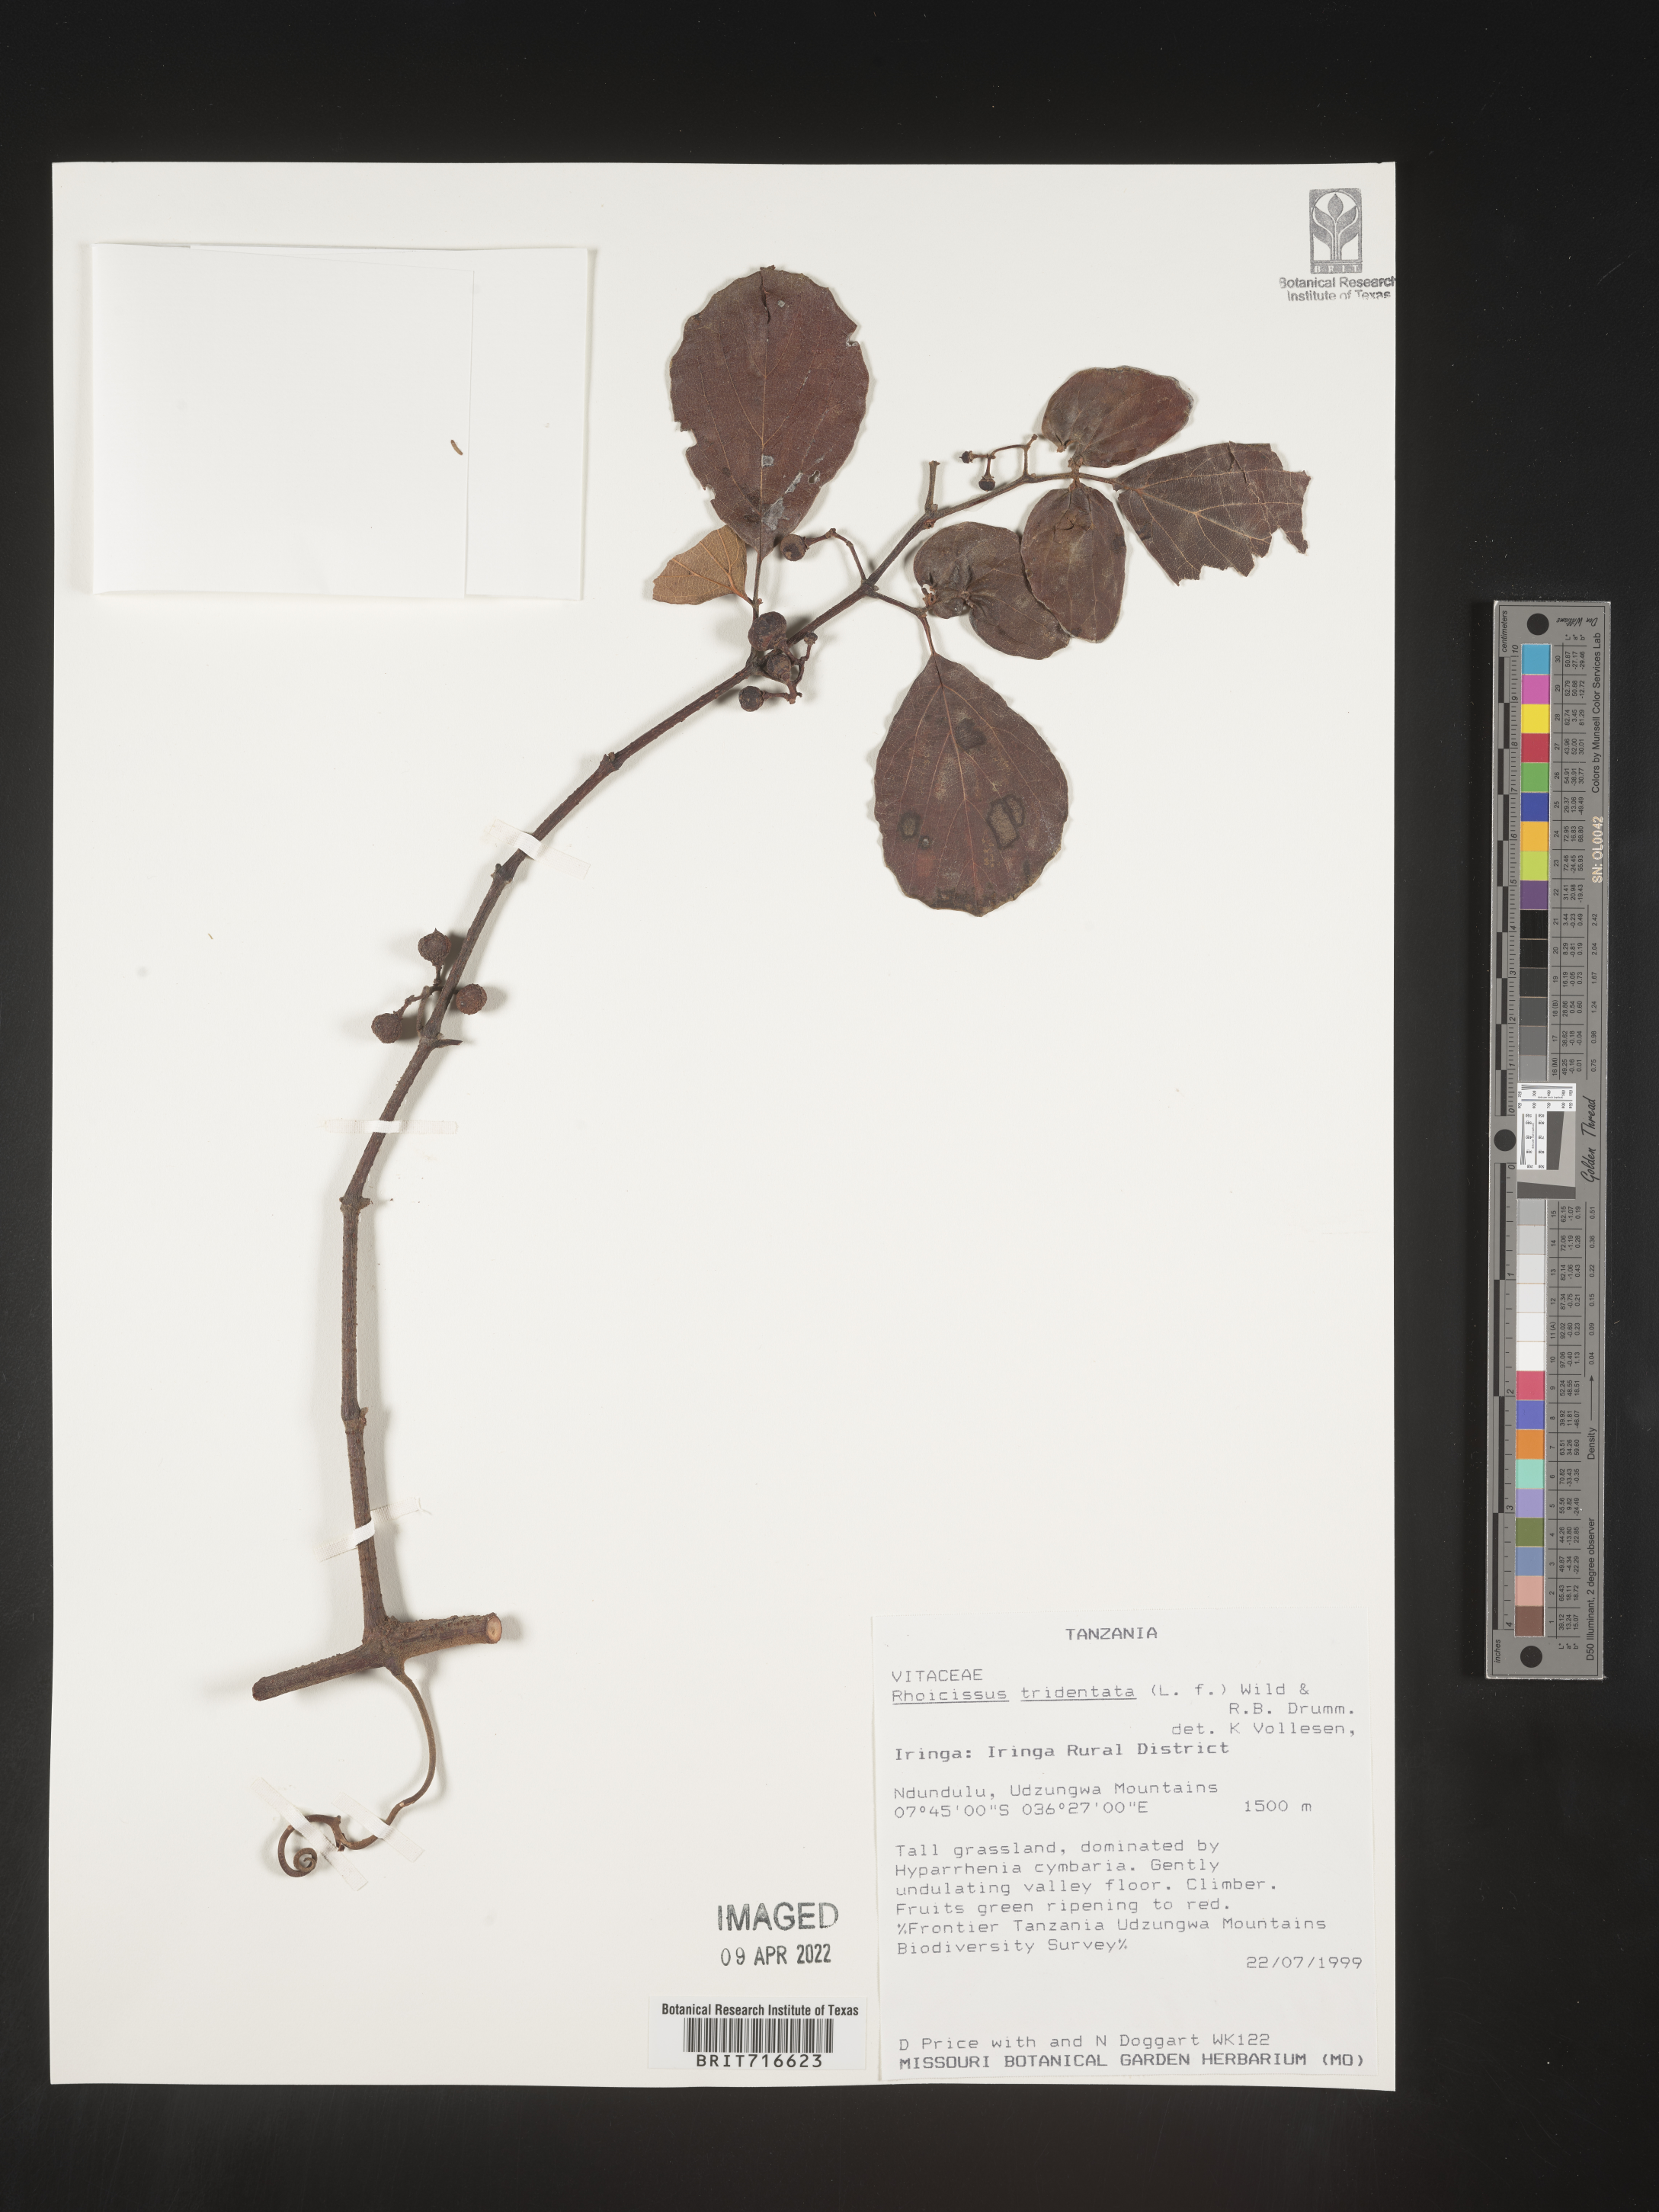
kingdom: Plantae
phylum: Tracheophyta
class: Magnoliopsida
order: Vitales
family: Vitaceae
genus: Rhoicissus
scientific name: Rhoicissus tridentata
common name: Common forest grape
